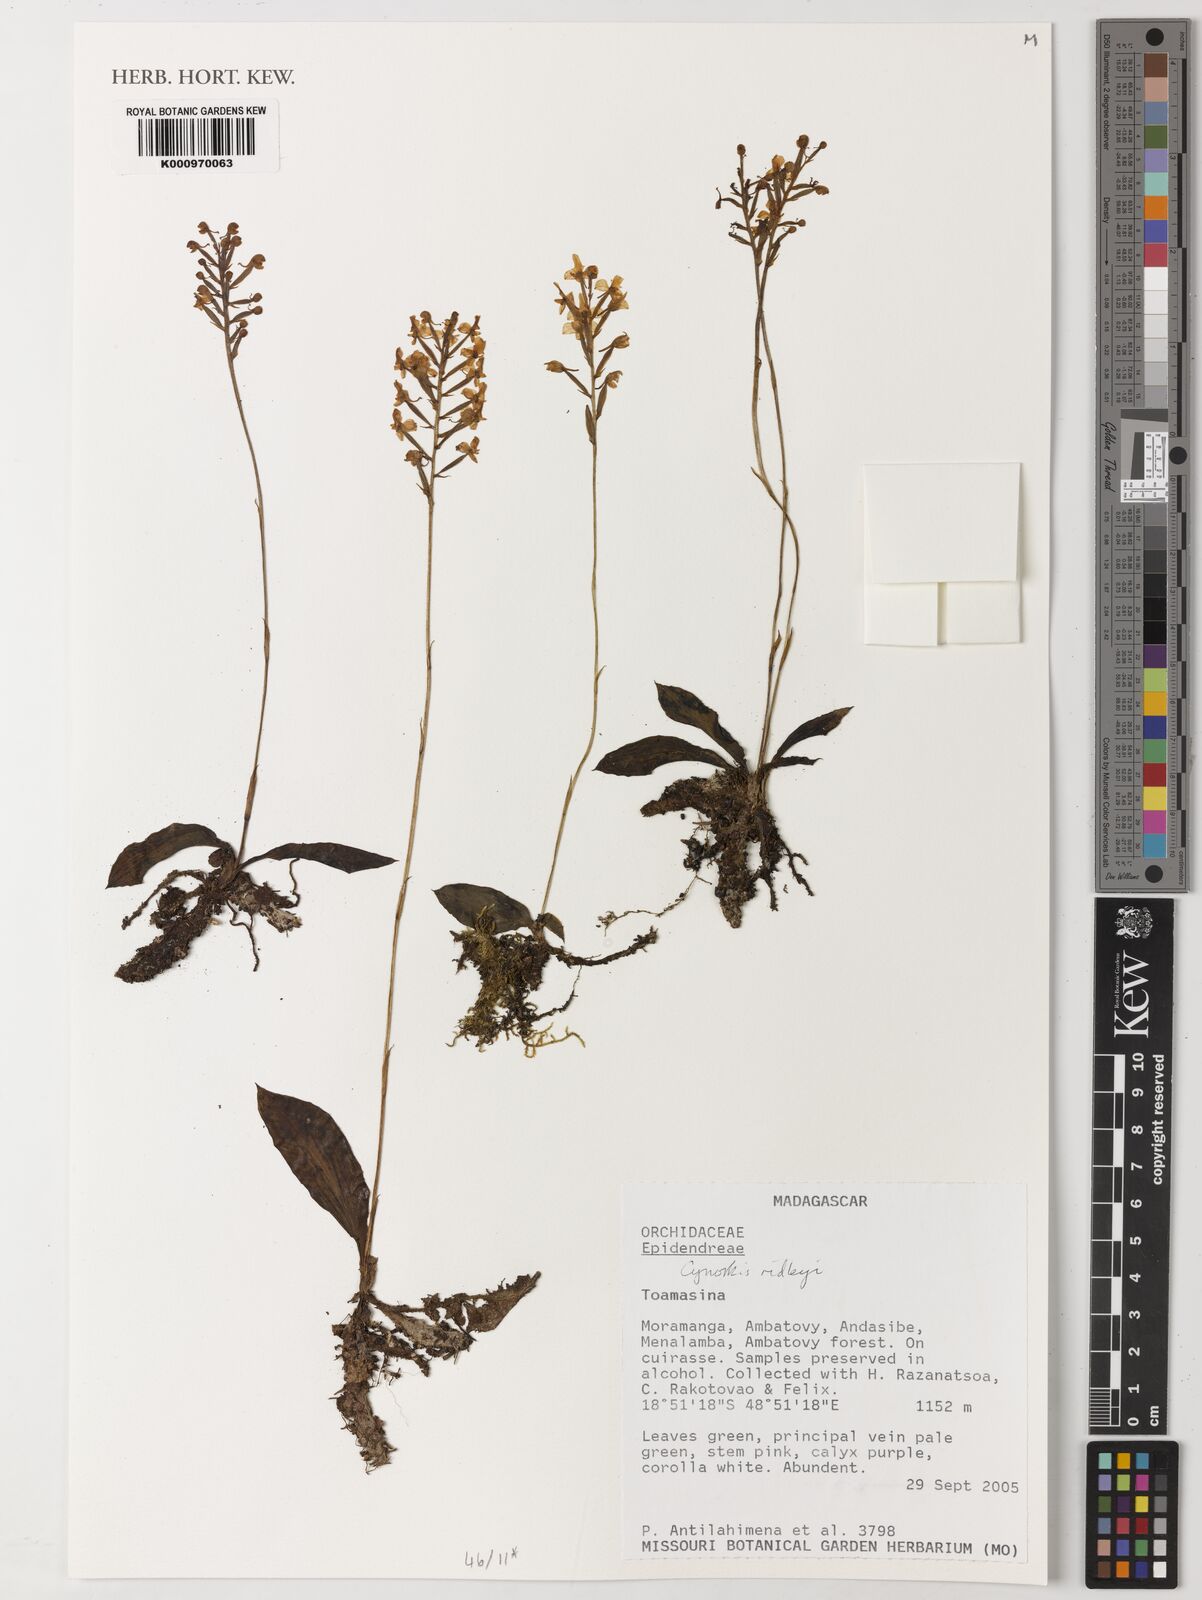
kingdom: Plantae
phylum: Tracheophyta
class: Liliopsida
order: Asparagales
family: Orchidaceae
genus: Cynorkis
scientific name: Cynorkis ridleyi
